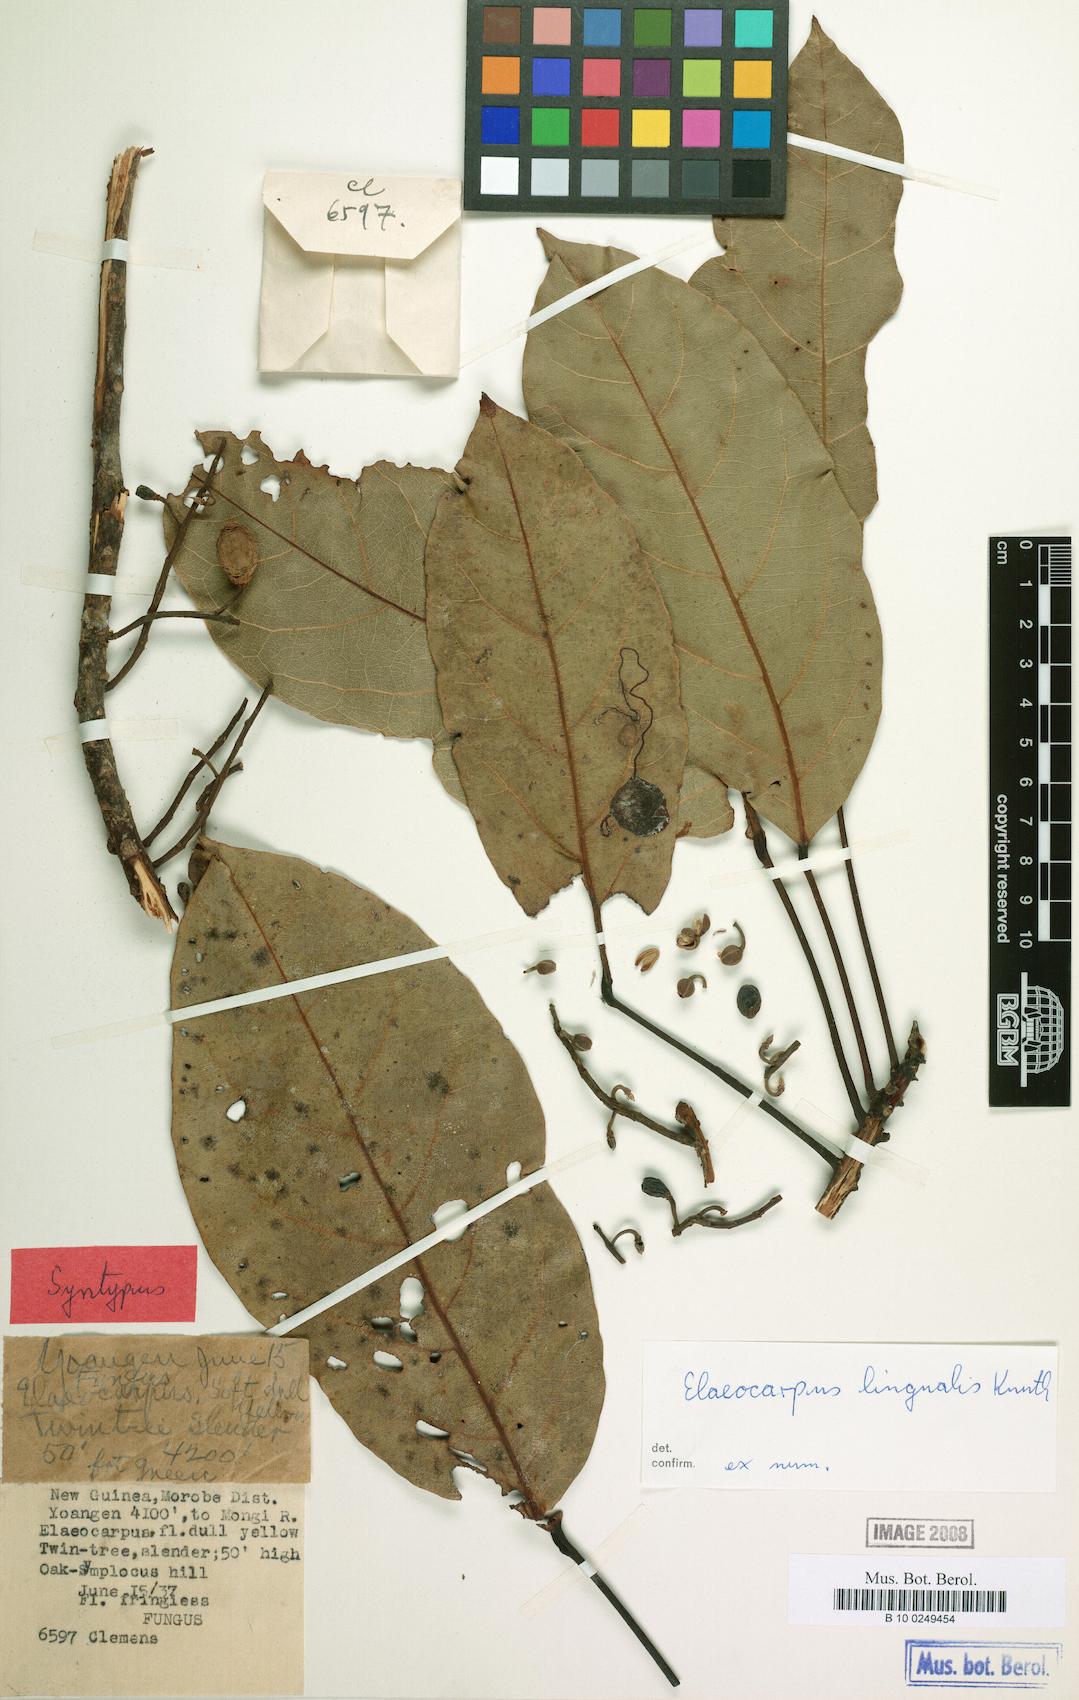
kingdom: Plantae
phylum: Tracheophyta
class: Magnoliopsida
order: Oxalidales
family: Elaeocarpaceae
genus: Elaeocarpus
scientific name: Elaeocarpus lingualis
